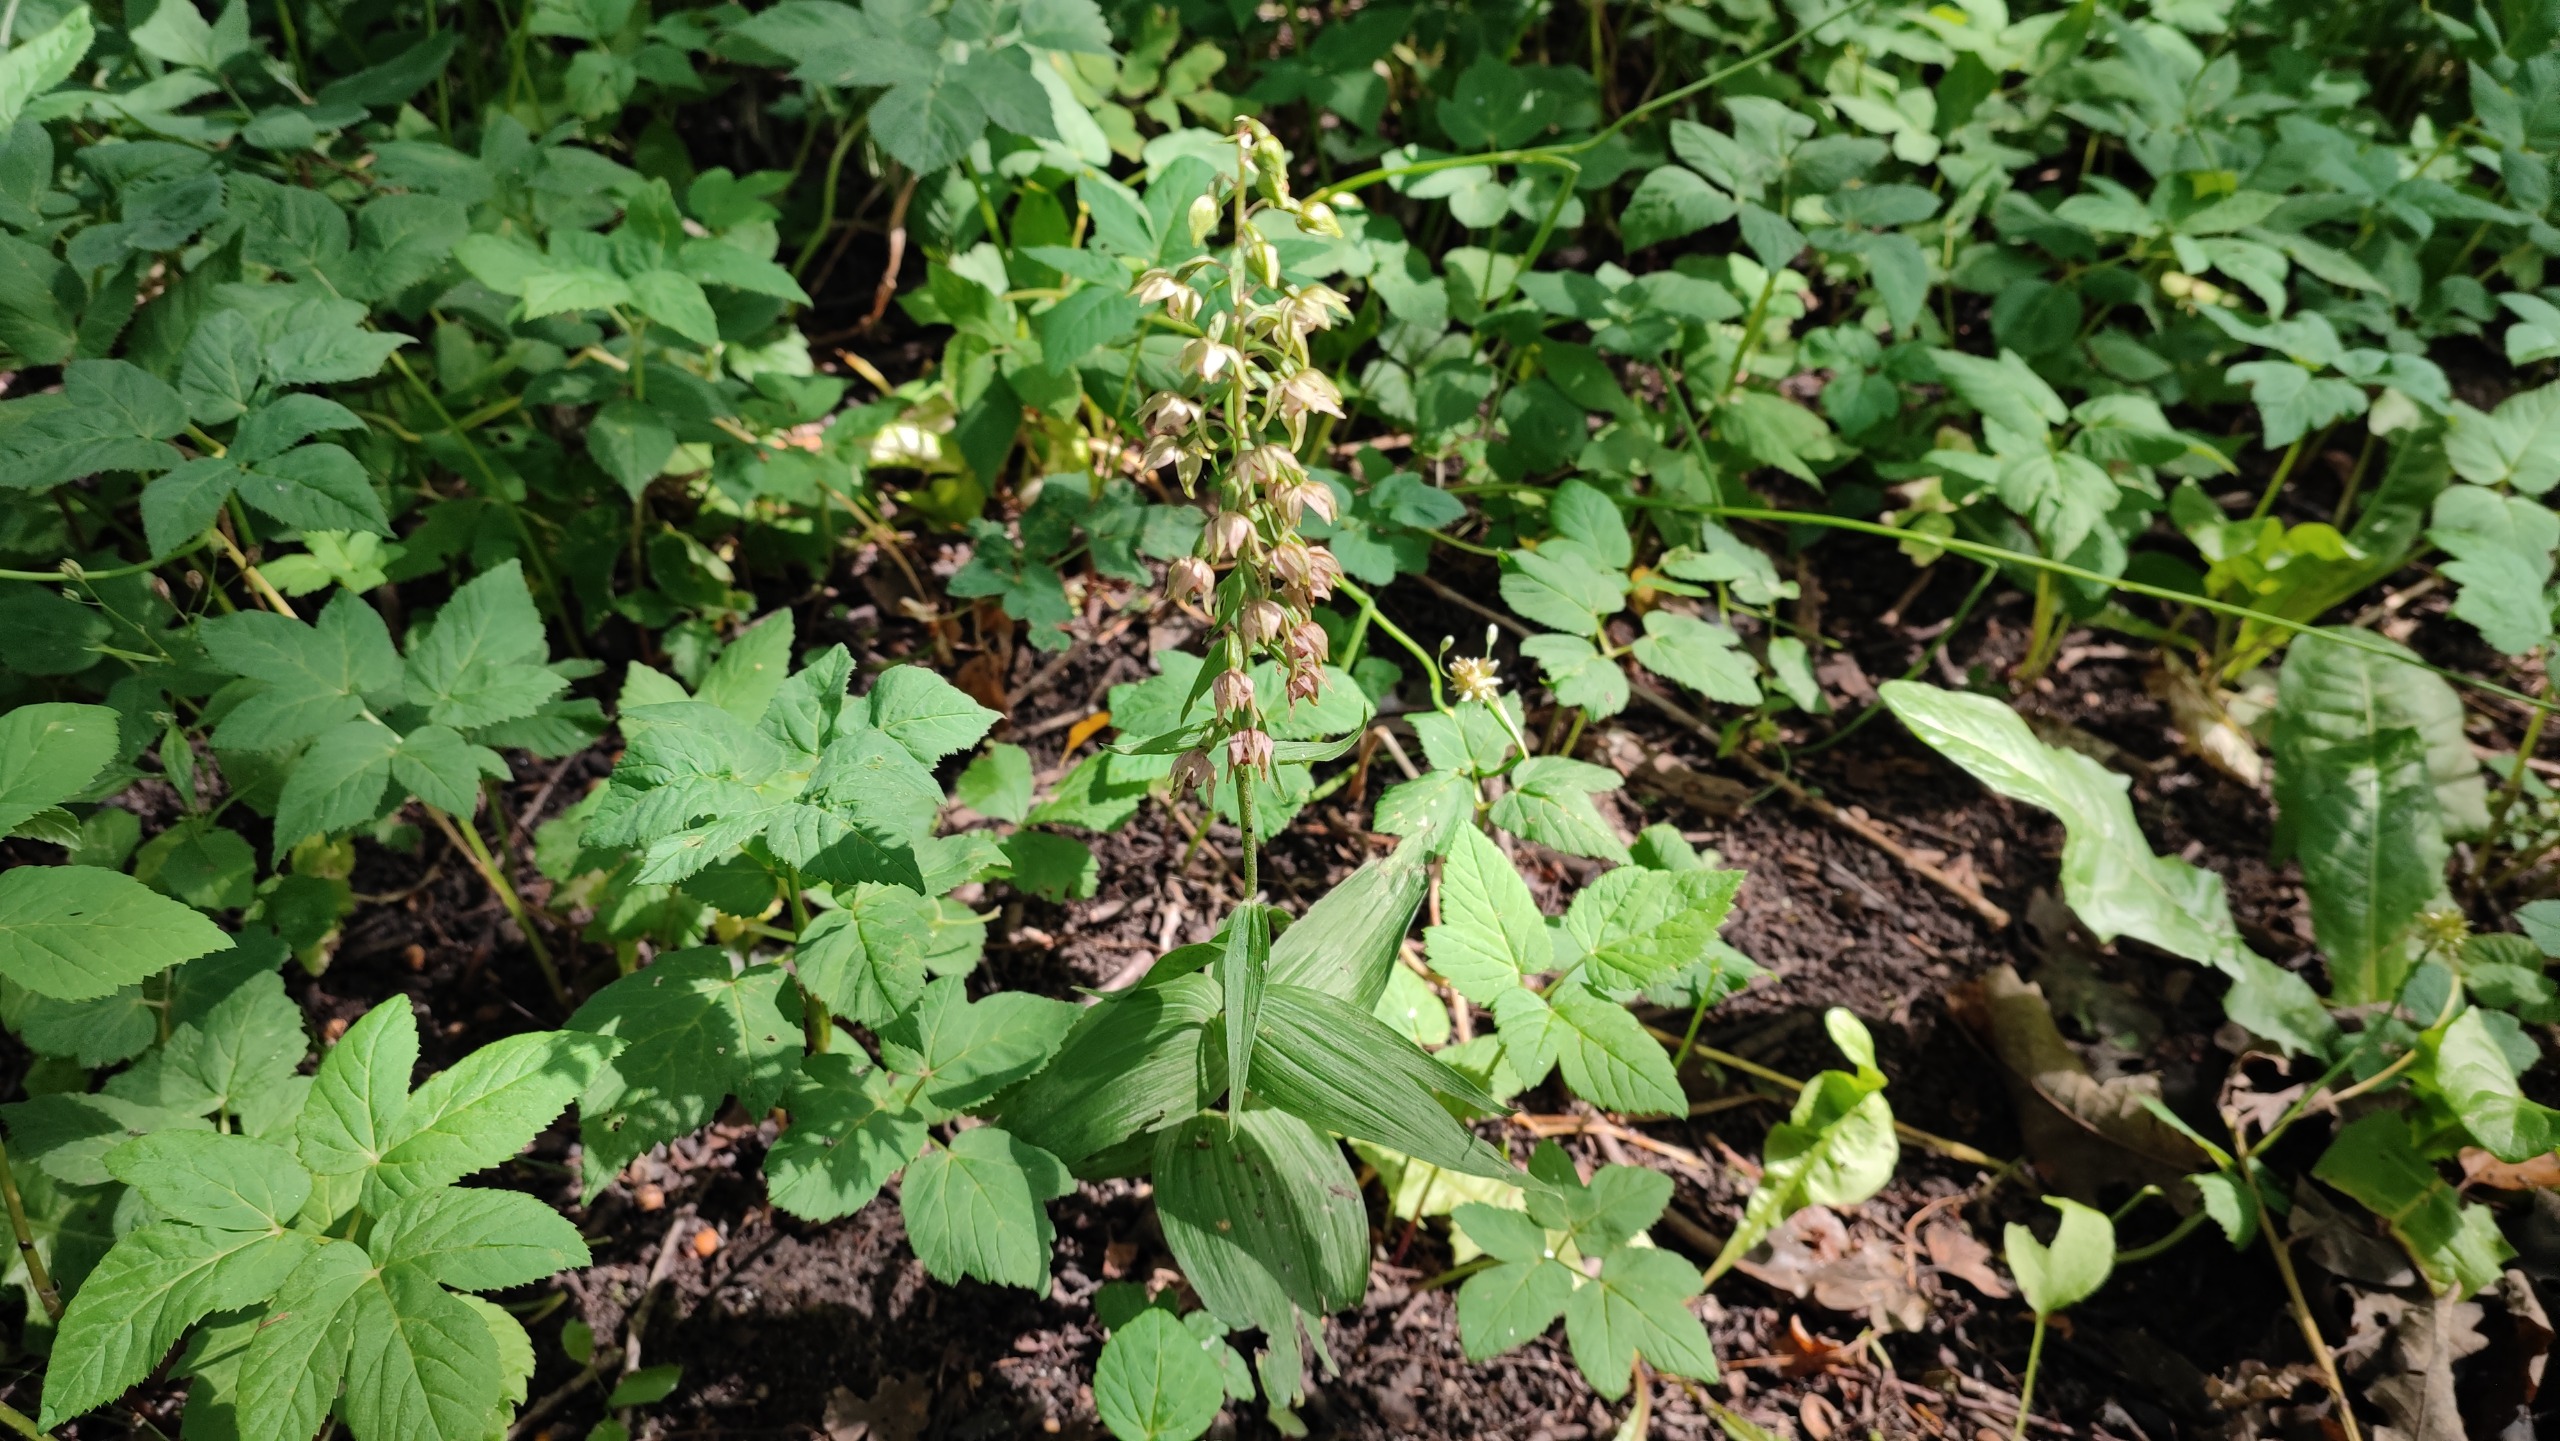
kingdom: Plantae
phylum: Tracheophyta
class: Liliopsida
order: Asparagales
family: Orchidaceae
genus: Epipactis
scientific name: Epipactis helleborine
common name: Skov-hullæbe
